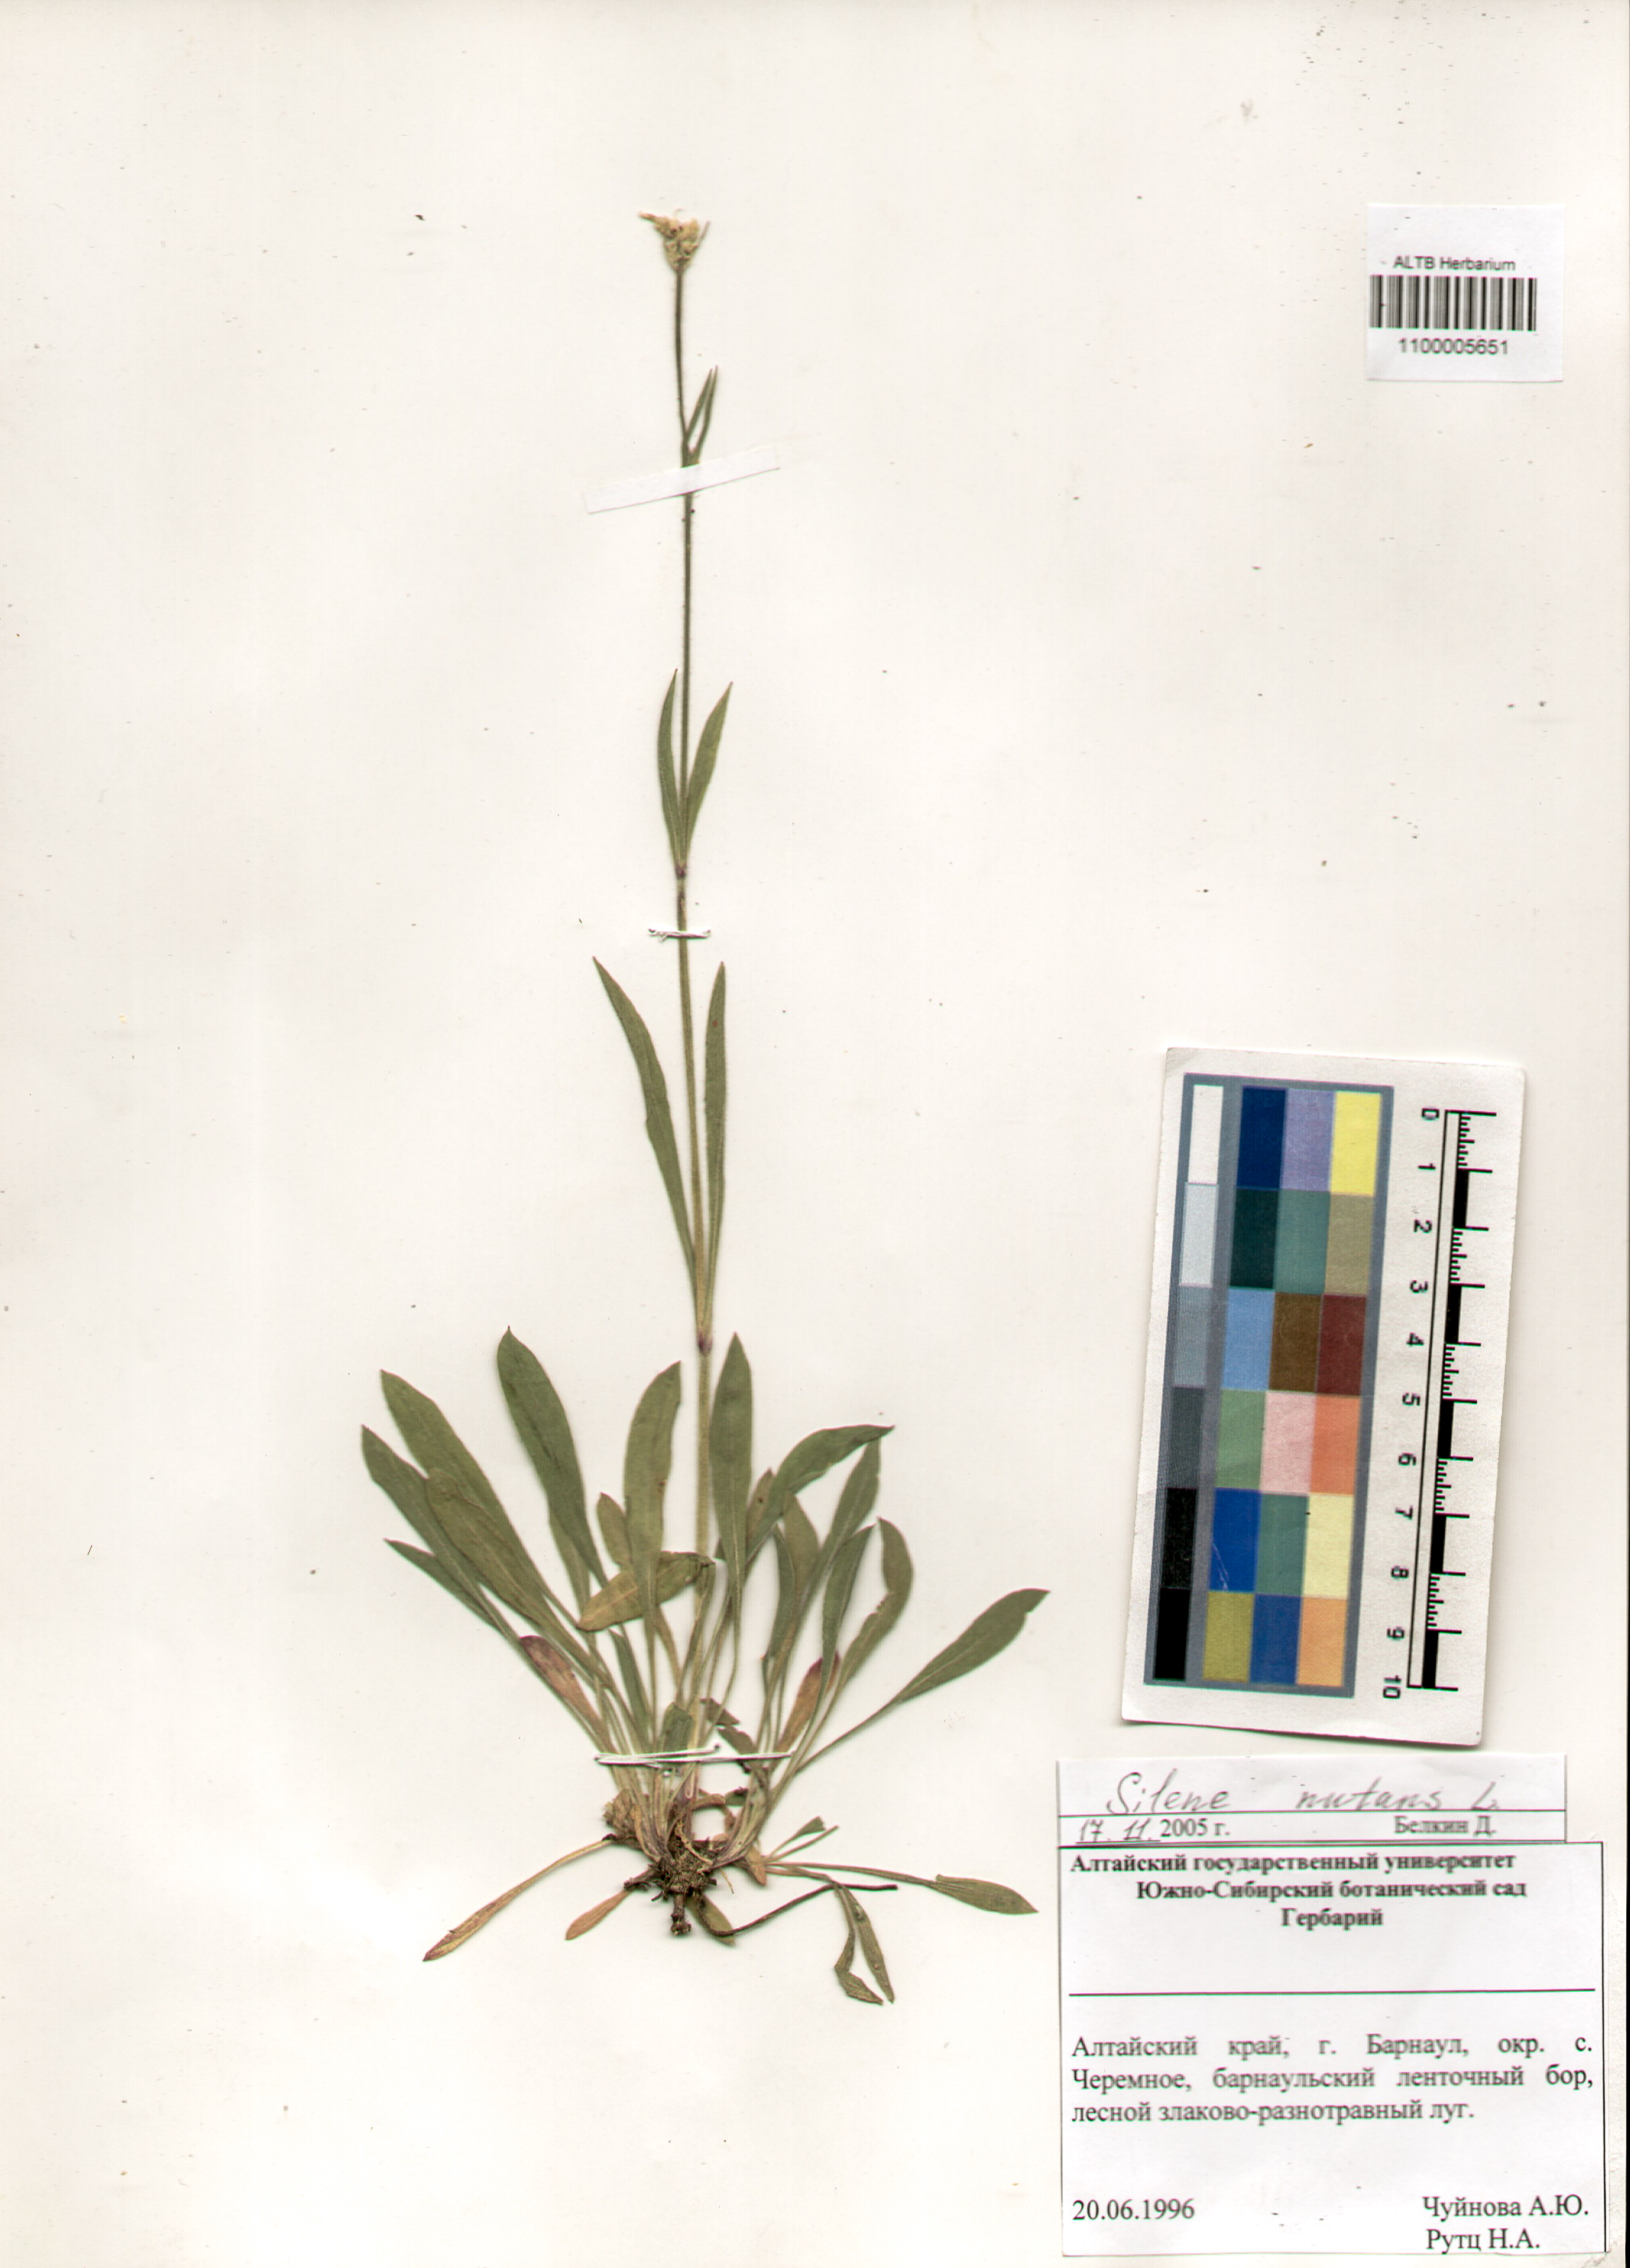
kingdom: Plantae
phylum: Tracheophyta
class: Magnoliopsida
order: Caryophyllales
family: Caryophyllaceae
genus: Silene
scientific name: Silene nutans
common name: Nottingham catchfly
